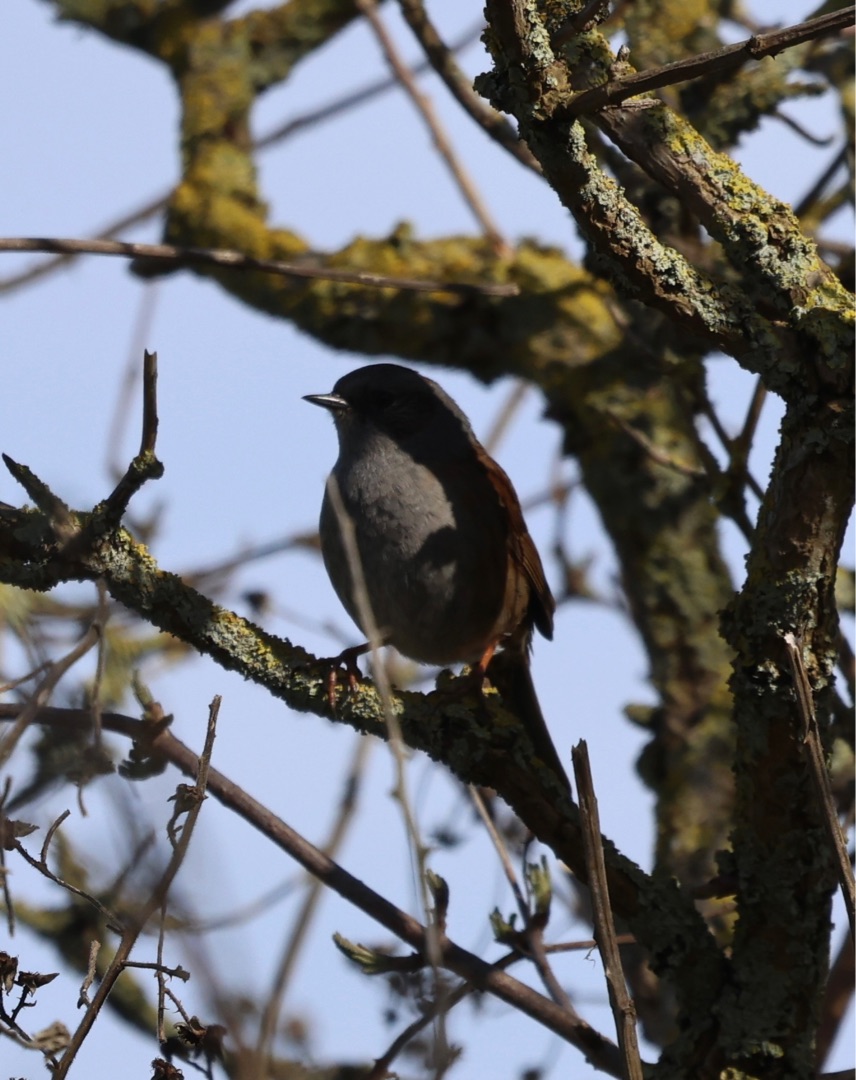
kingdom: Animalia
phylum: Chordata
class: Aves
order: Passeriformes
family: Prunellidae
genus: Prunella
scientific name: Prunella modularis
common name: Jernspurv
